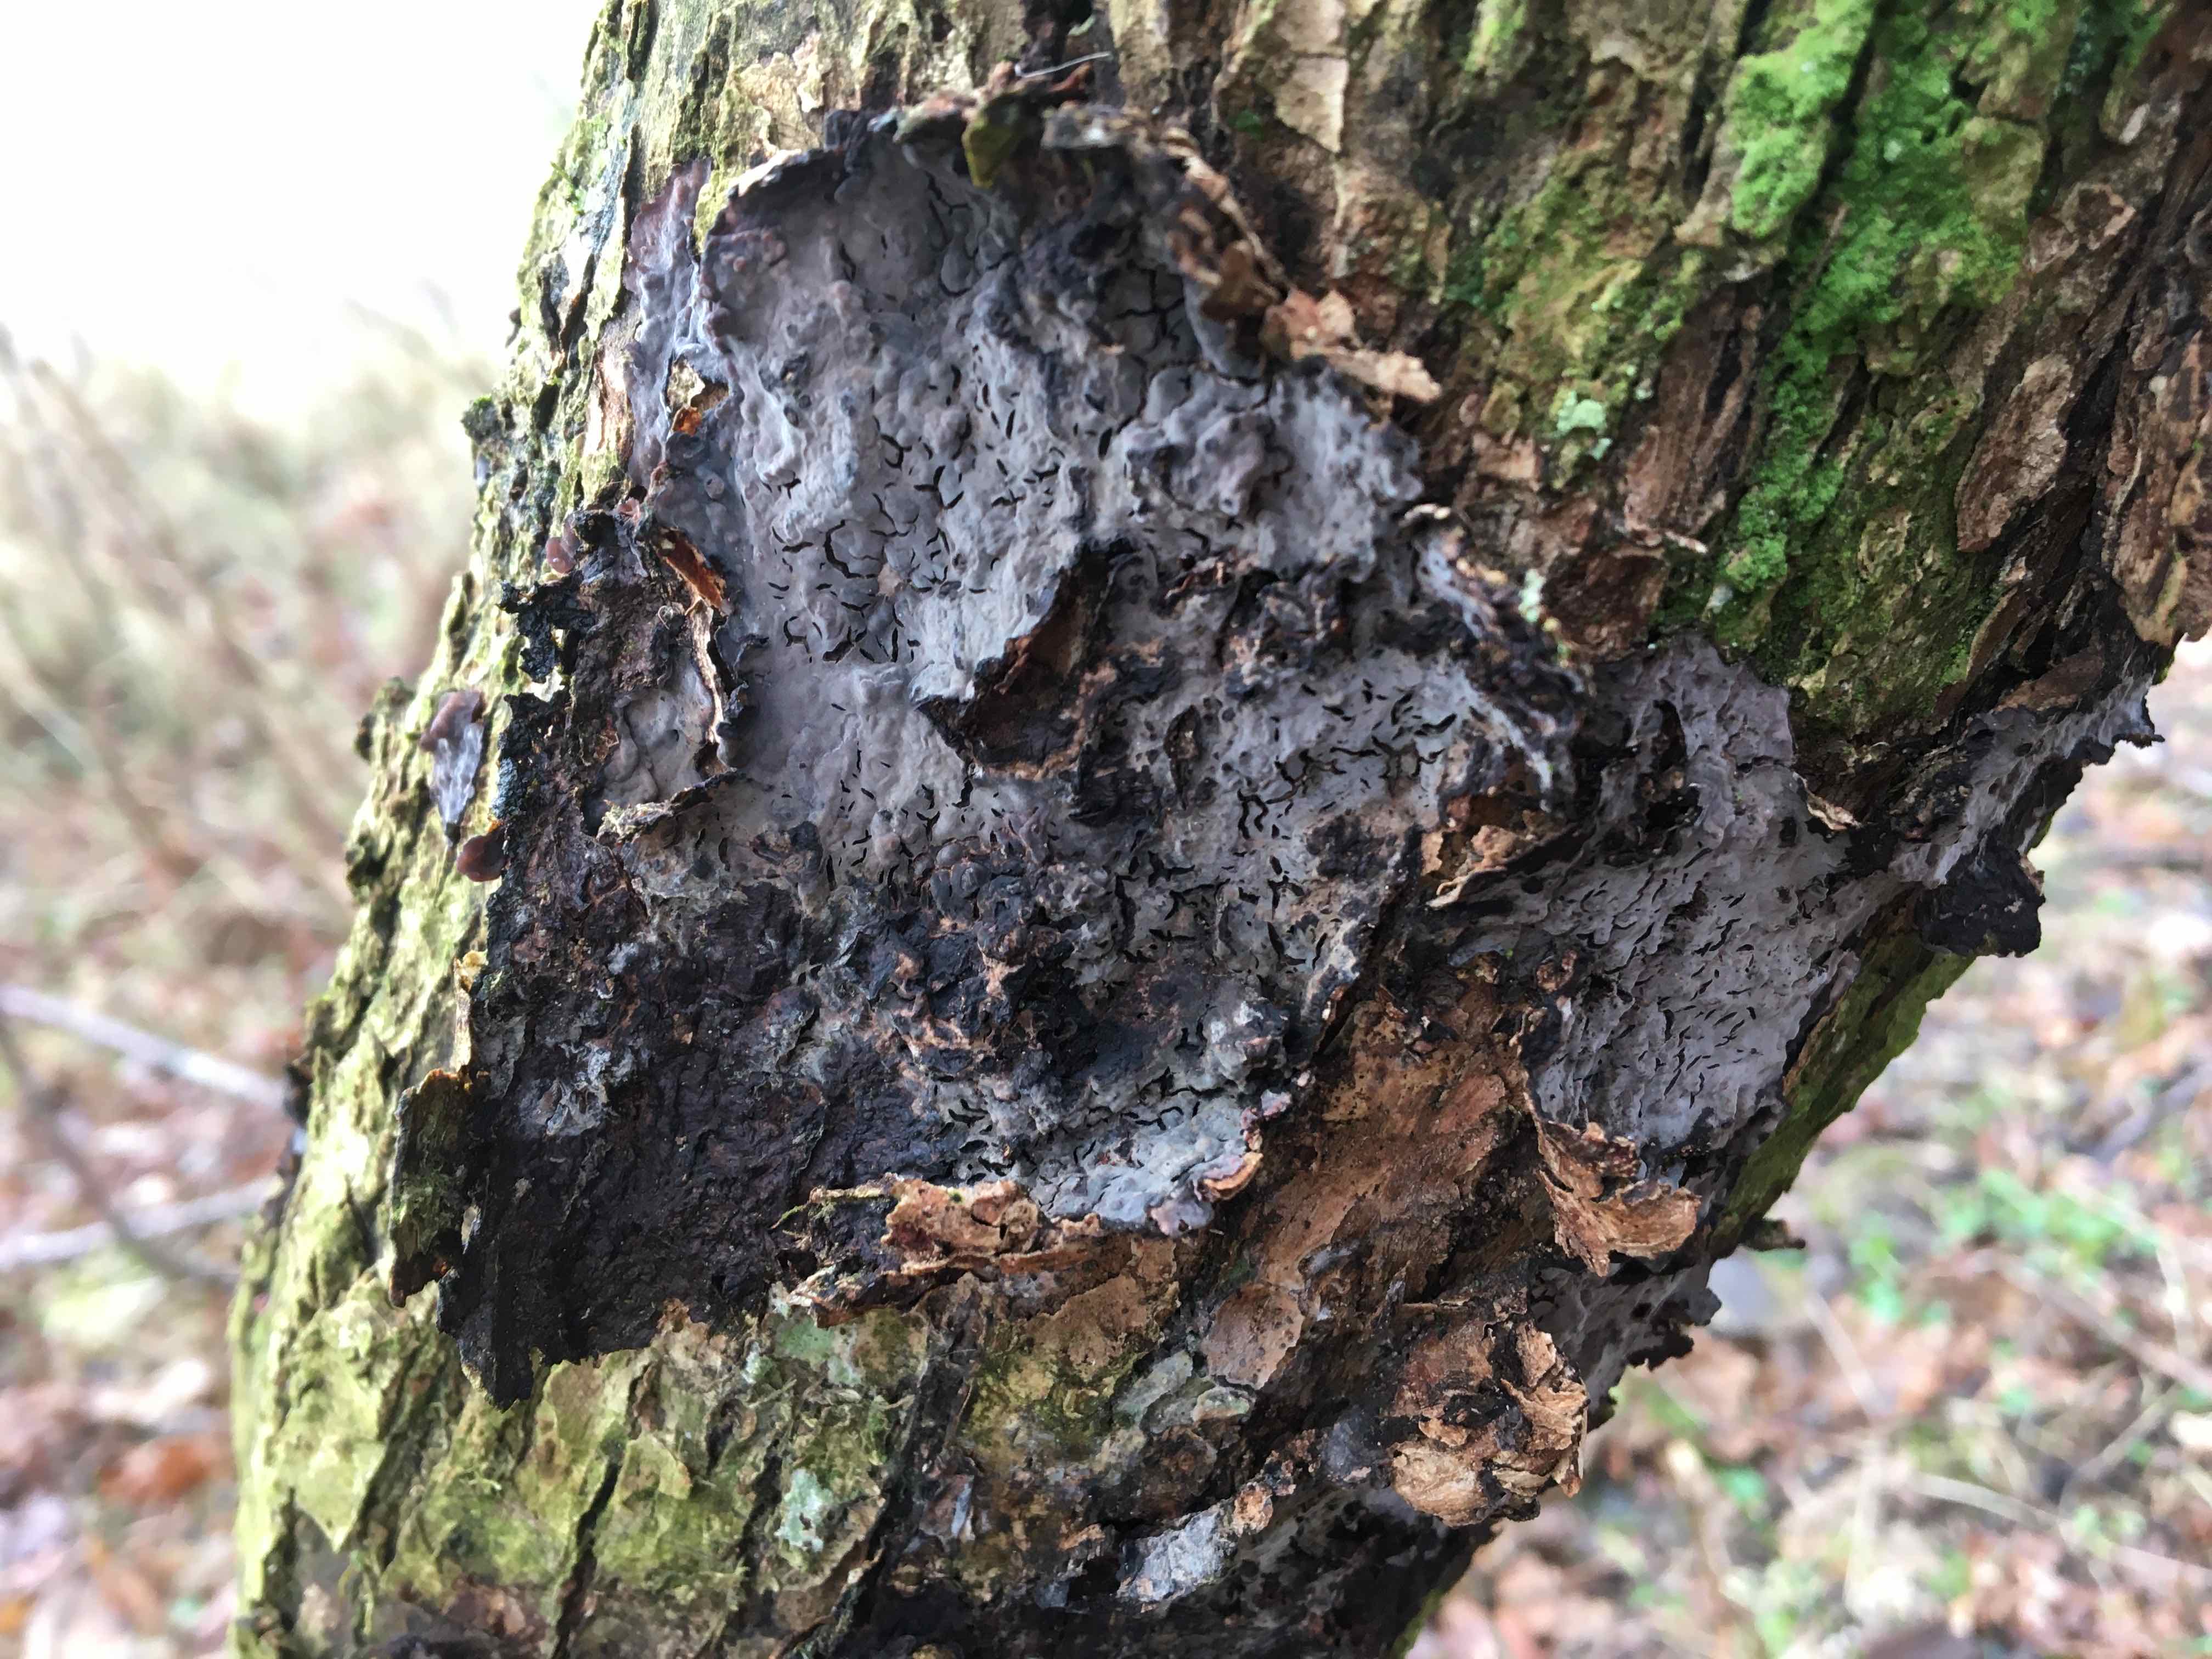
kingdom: Fungi
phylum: Basidiomycota
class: Agaricomycetes
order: Russulales
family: Peniophoraceae
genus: Peniophora
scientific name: Peniophora quercina
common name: ege-voksskind
